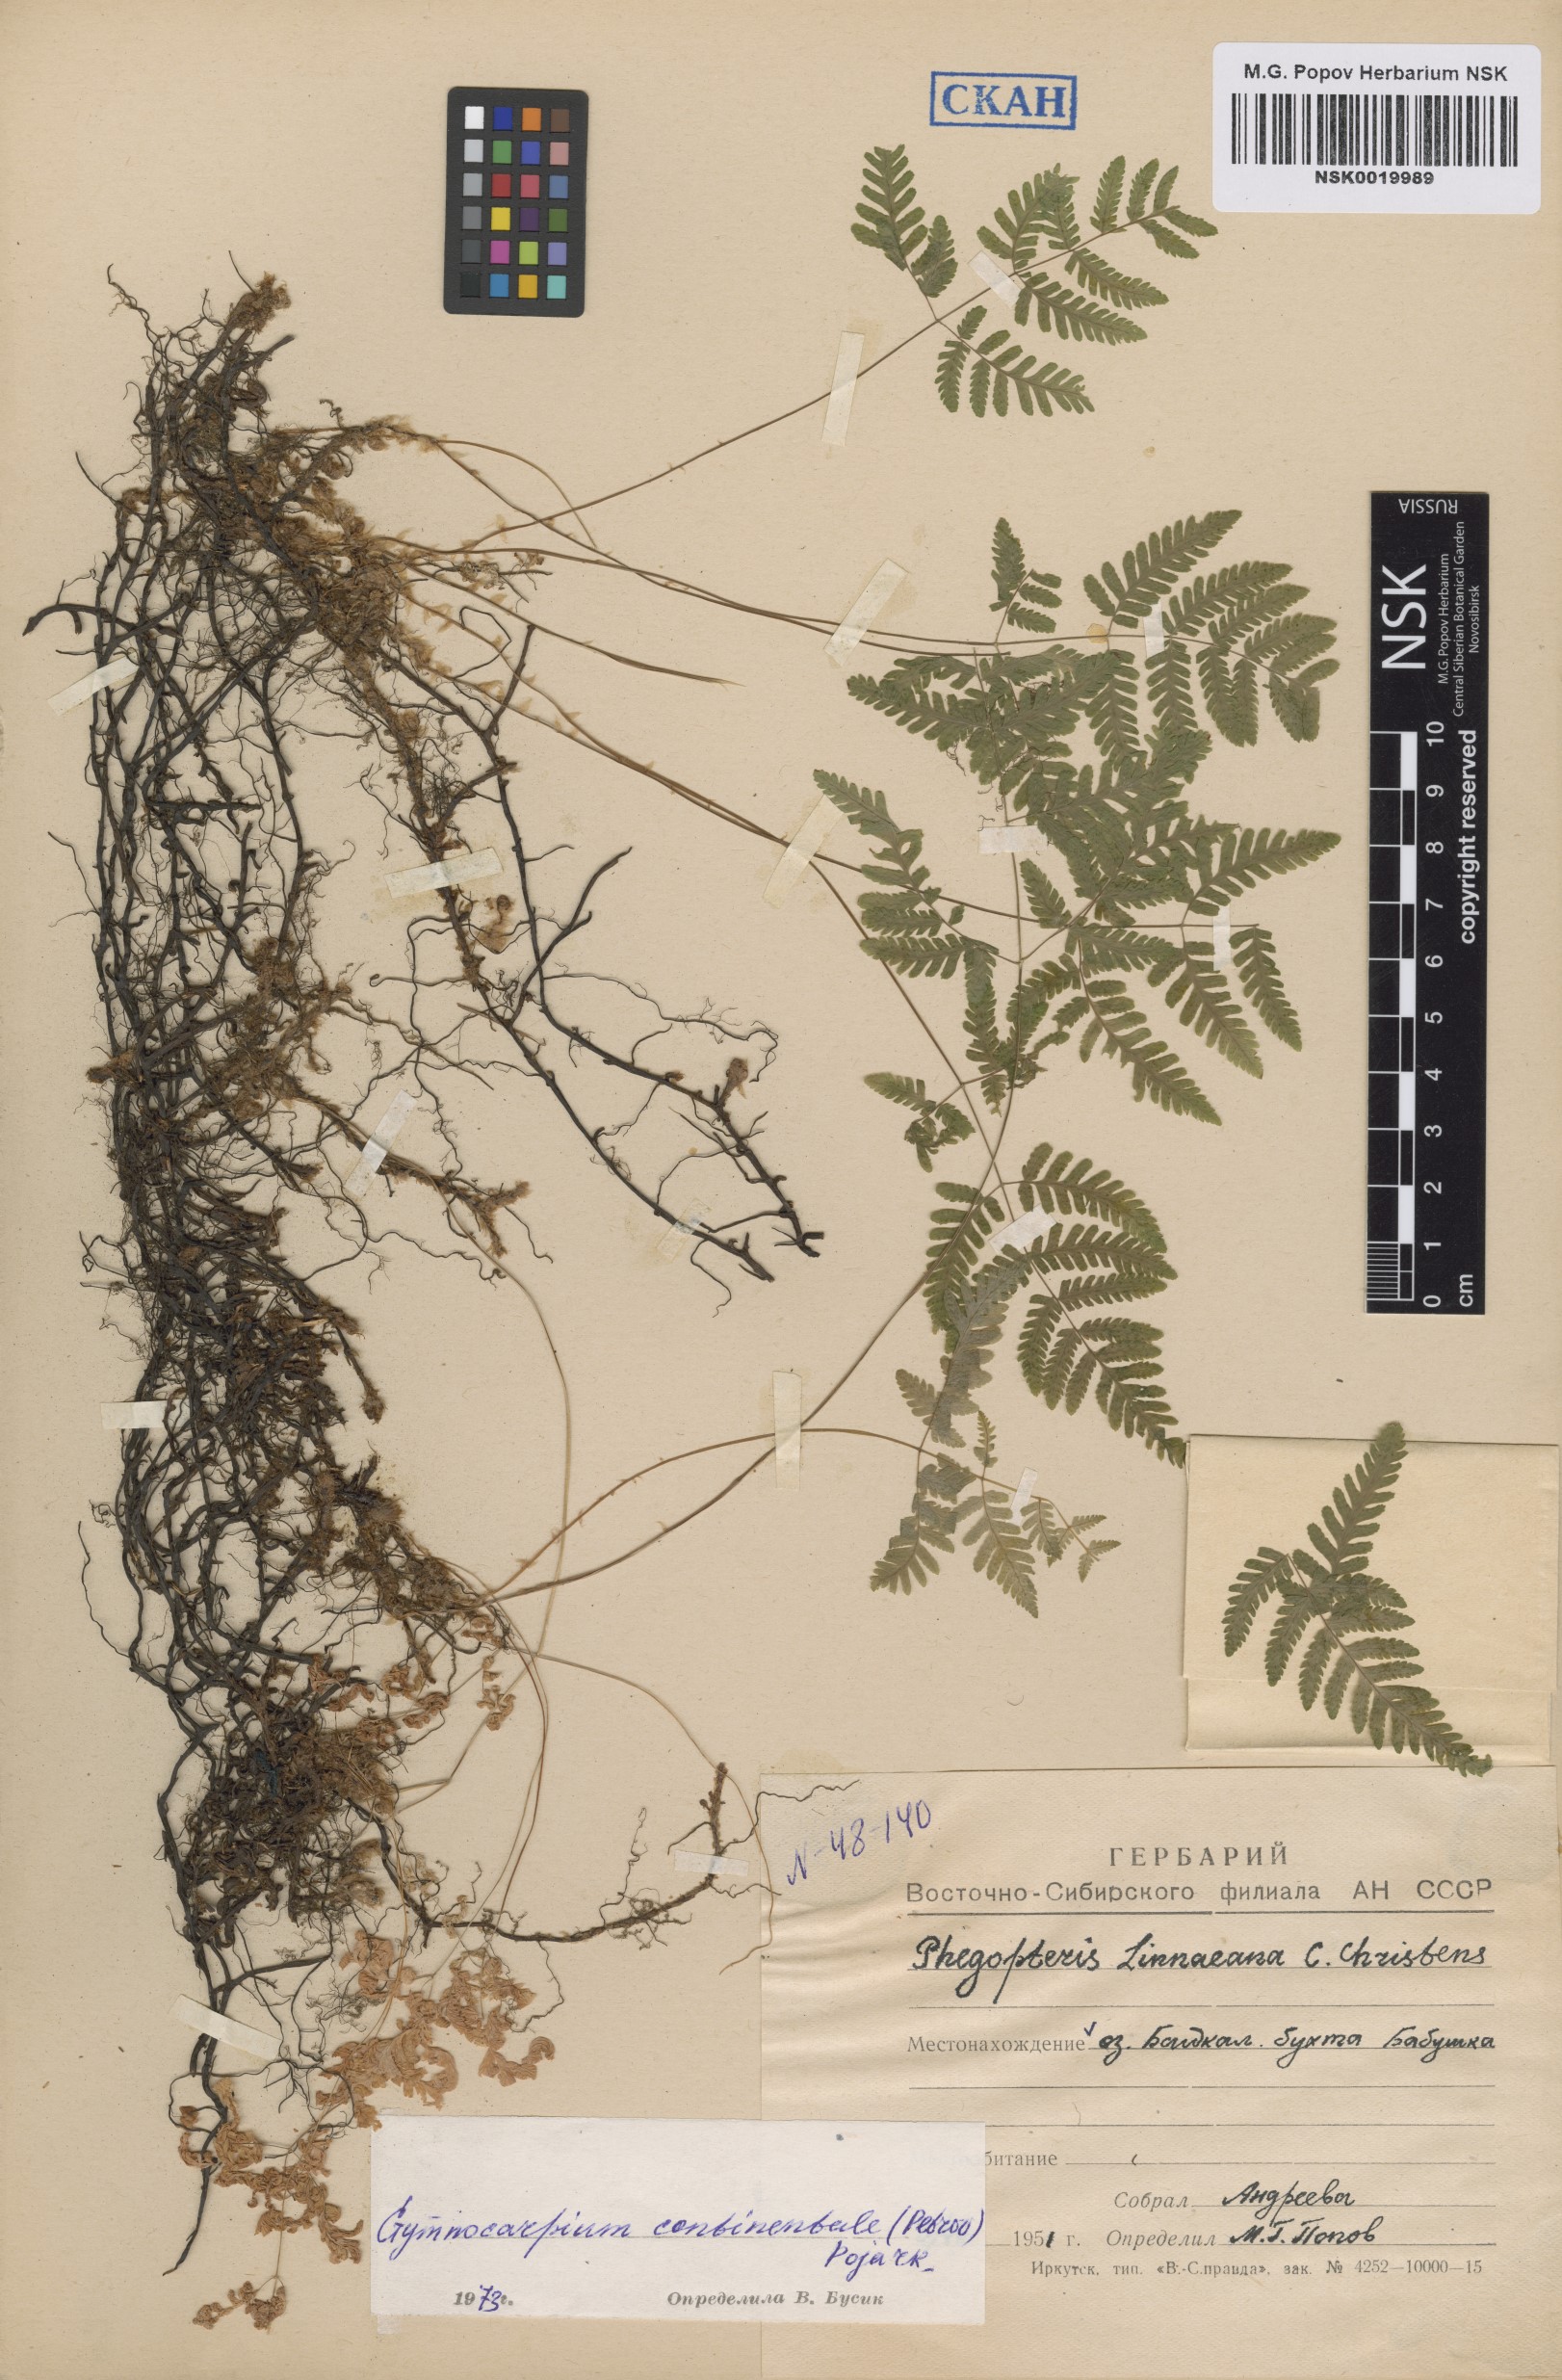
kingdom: Plantae
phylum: Tracheophyta
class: Polypodiopsida
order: Polypodiales
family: Cystopteridaceae
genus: Gymnocarpium
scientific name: Gymnocarpium continentale
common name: Asian oak fern
